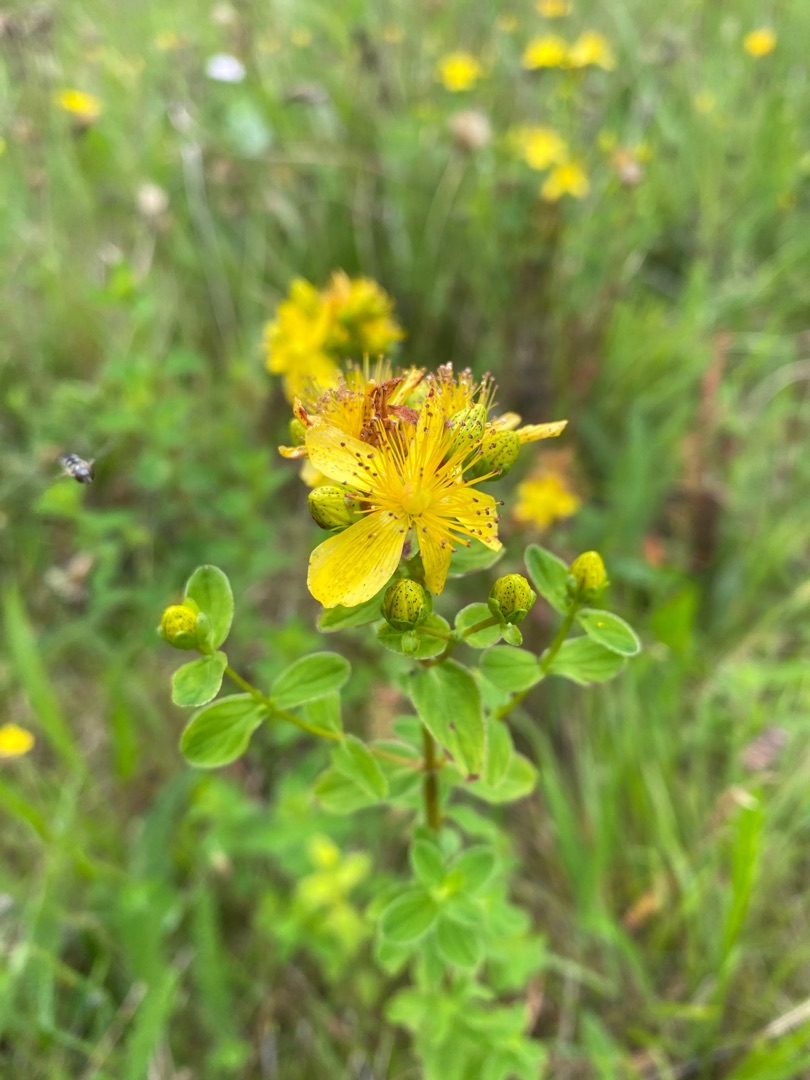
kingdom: Plantae
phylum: Tracheophyta
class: Magnoliopsida
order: Malpighiales
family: Hypericaceae
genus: Hypericum
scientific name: Hypericum maculatum
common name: Kantet perikon
